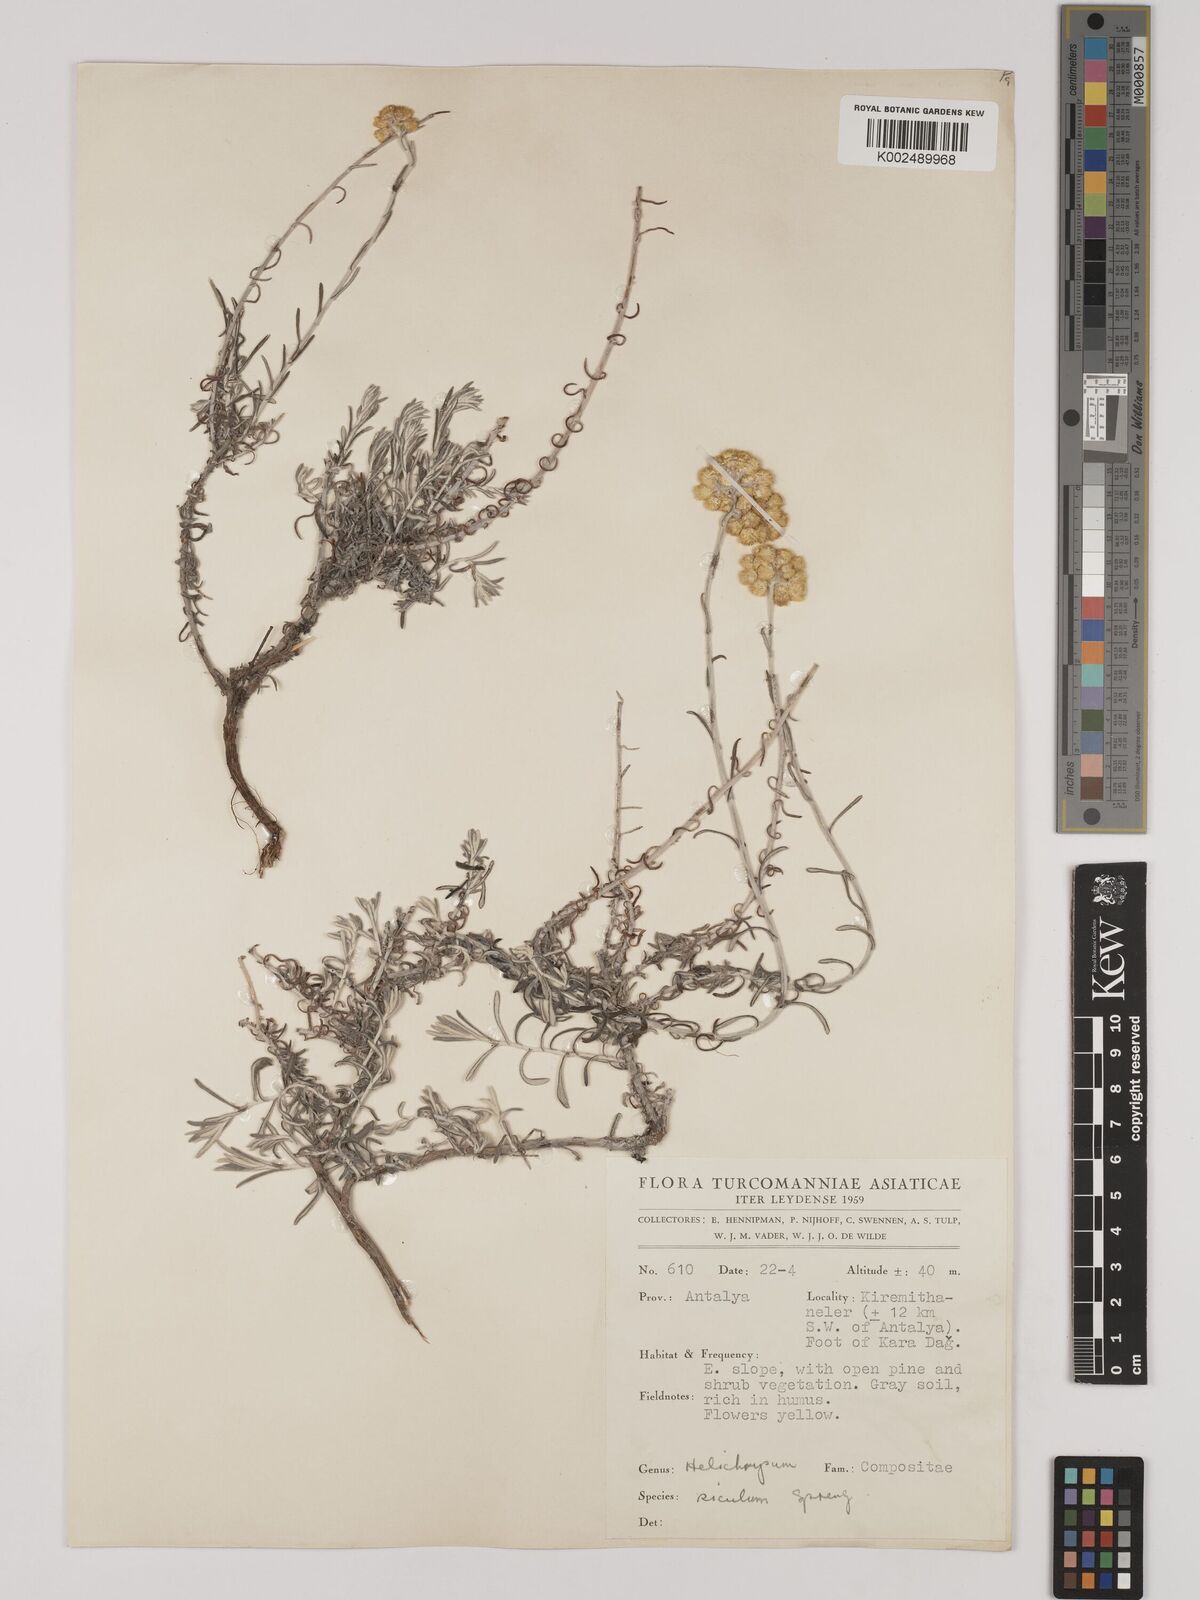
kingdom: Plantae
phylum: Tracheophyta
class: Magnoliopsida
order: Asterales
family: Asteraceae
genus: Helichrysum
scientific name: Helichrysum stoechas
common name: Goldilocks
